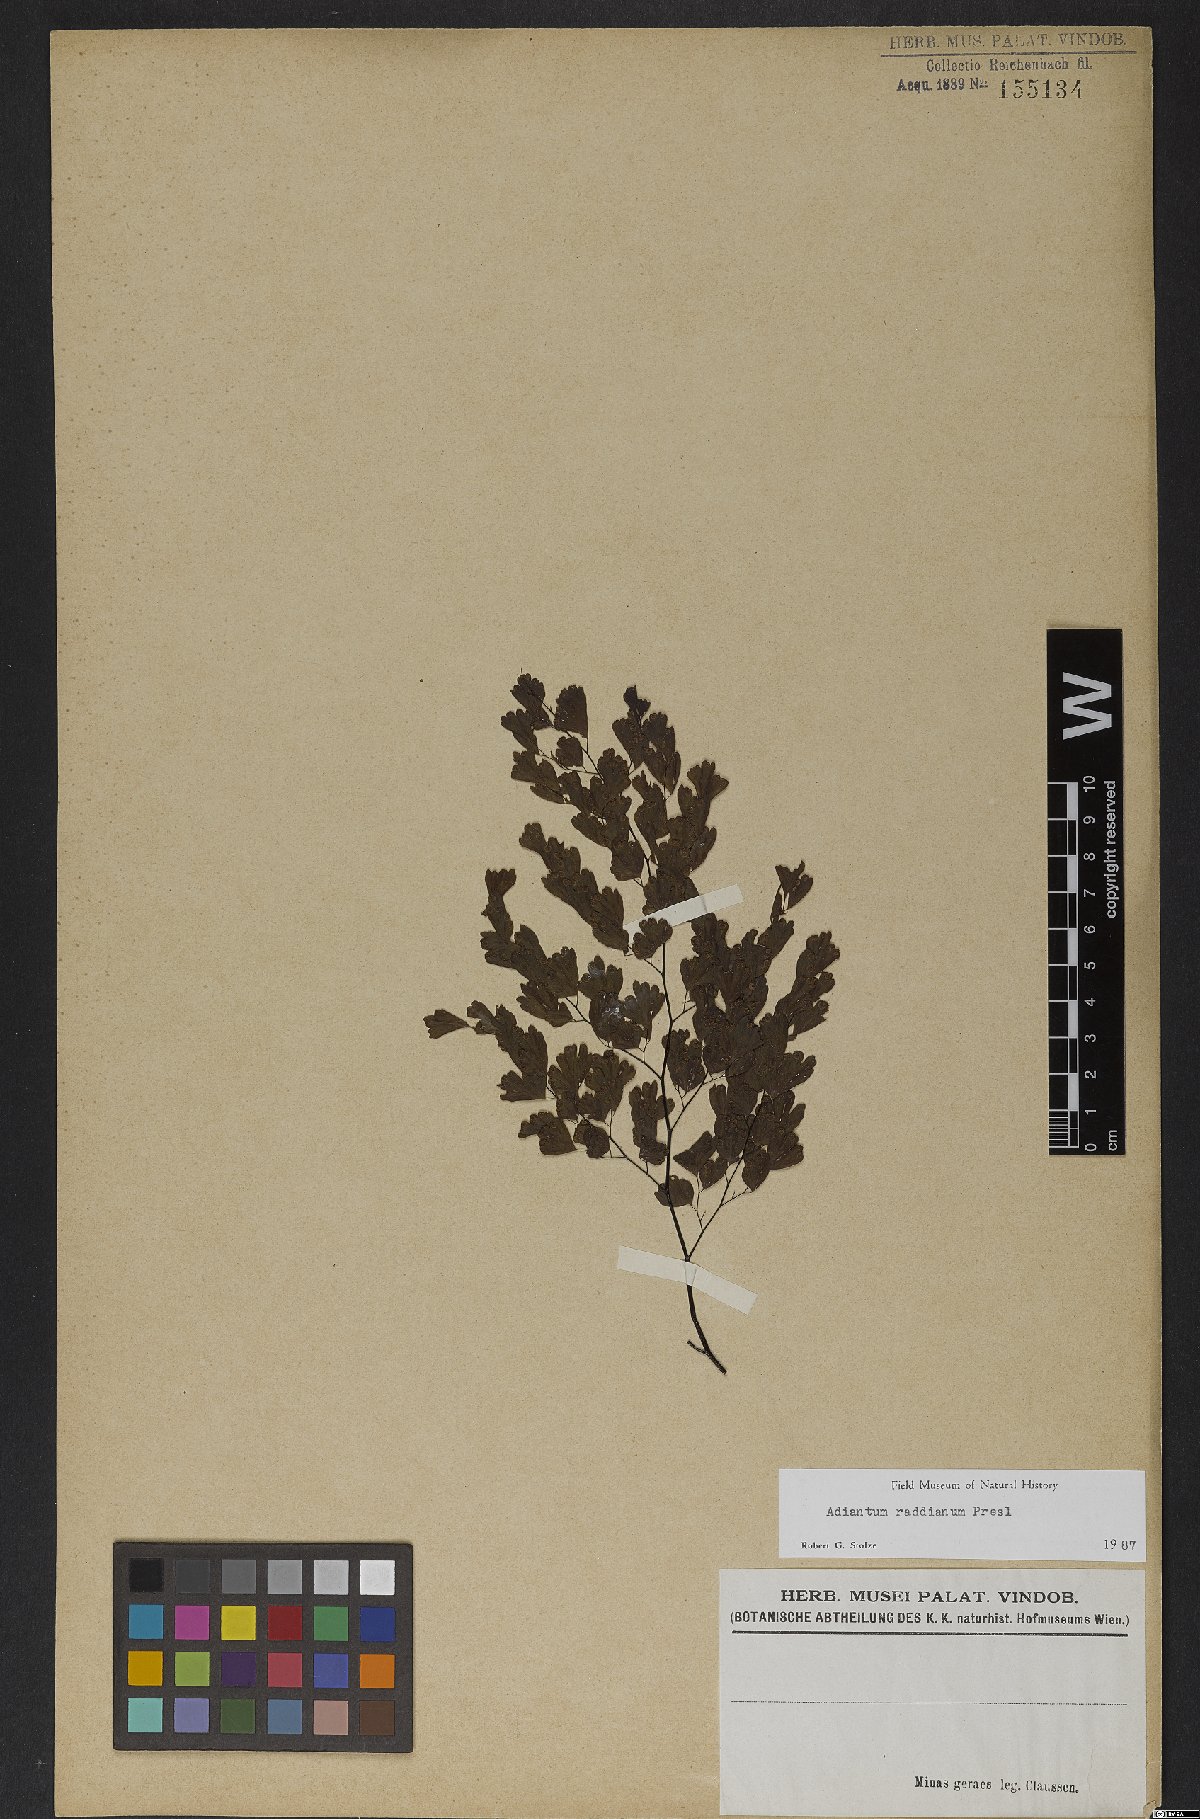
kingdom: Plantae
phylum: Tracheophyta
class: Polypodiopsida
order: Polypodiales
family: Pteridaceae
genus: Adiantum
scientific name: Adiantum raddianum
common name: Delta maidenhair fern
